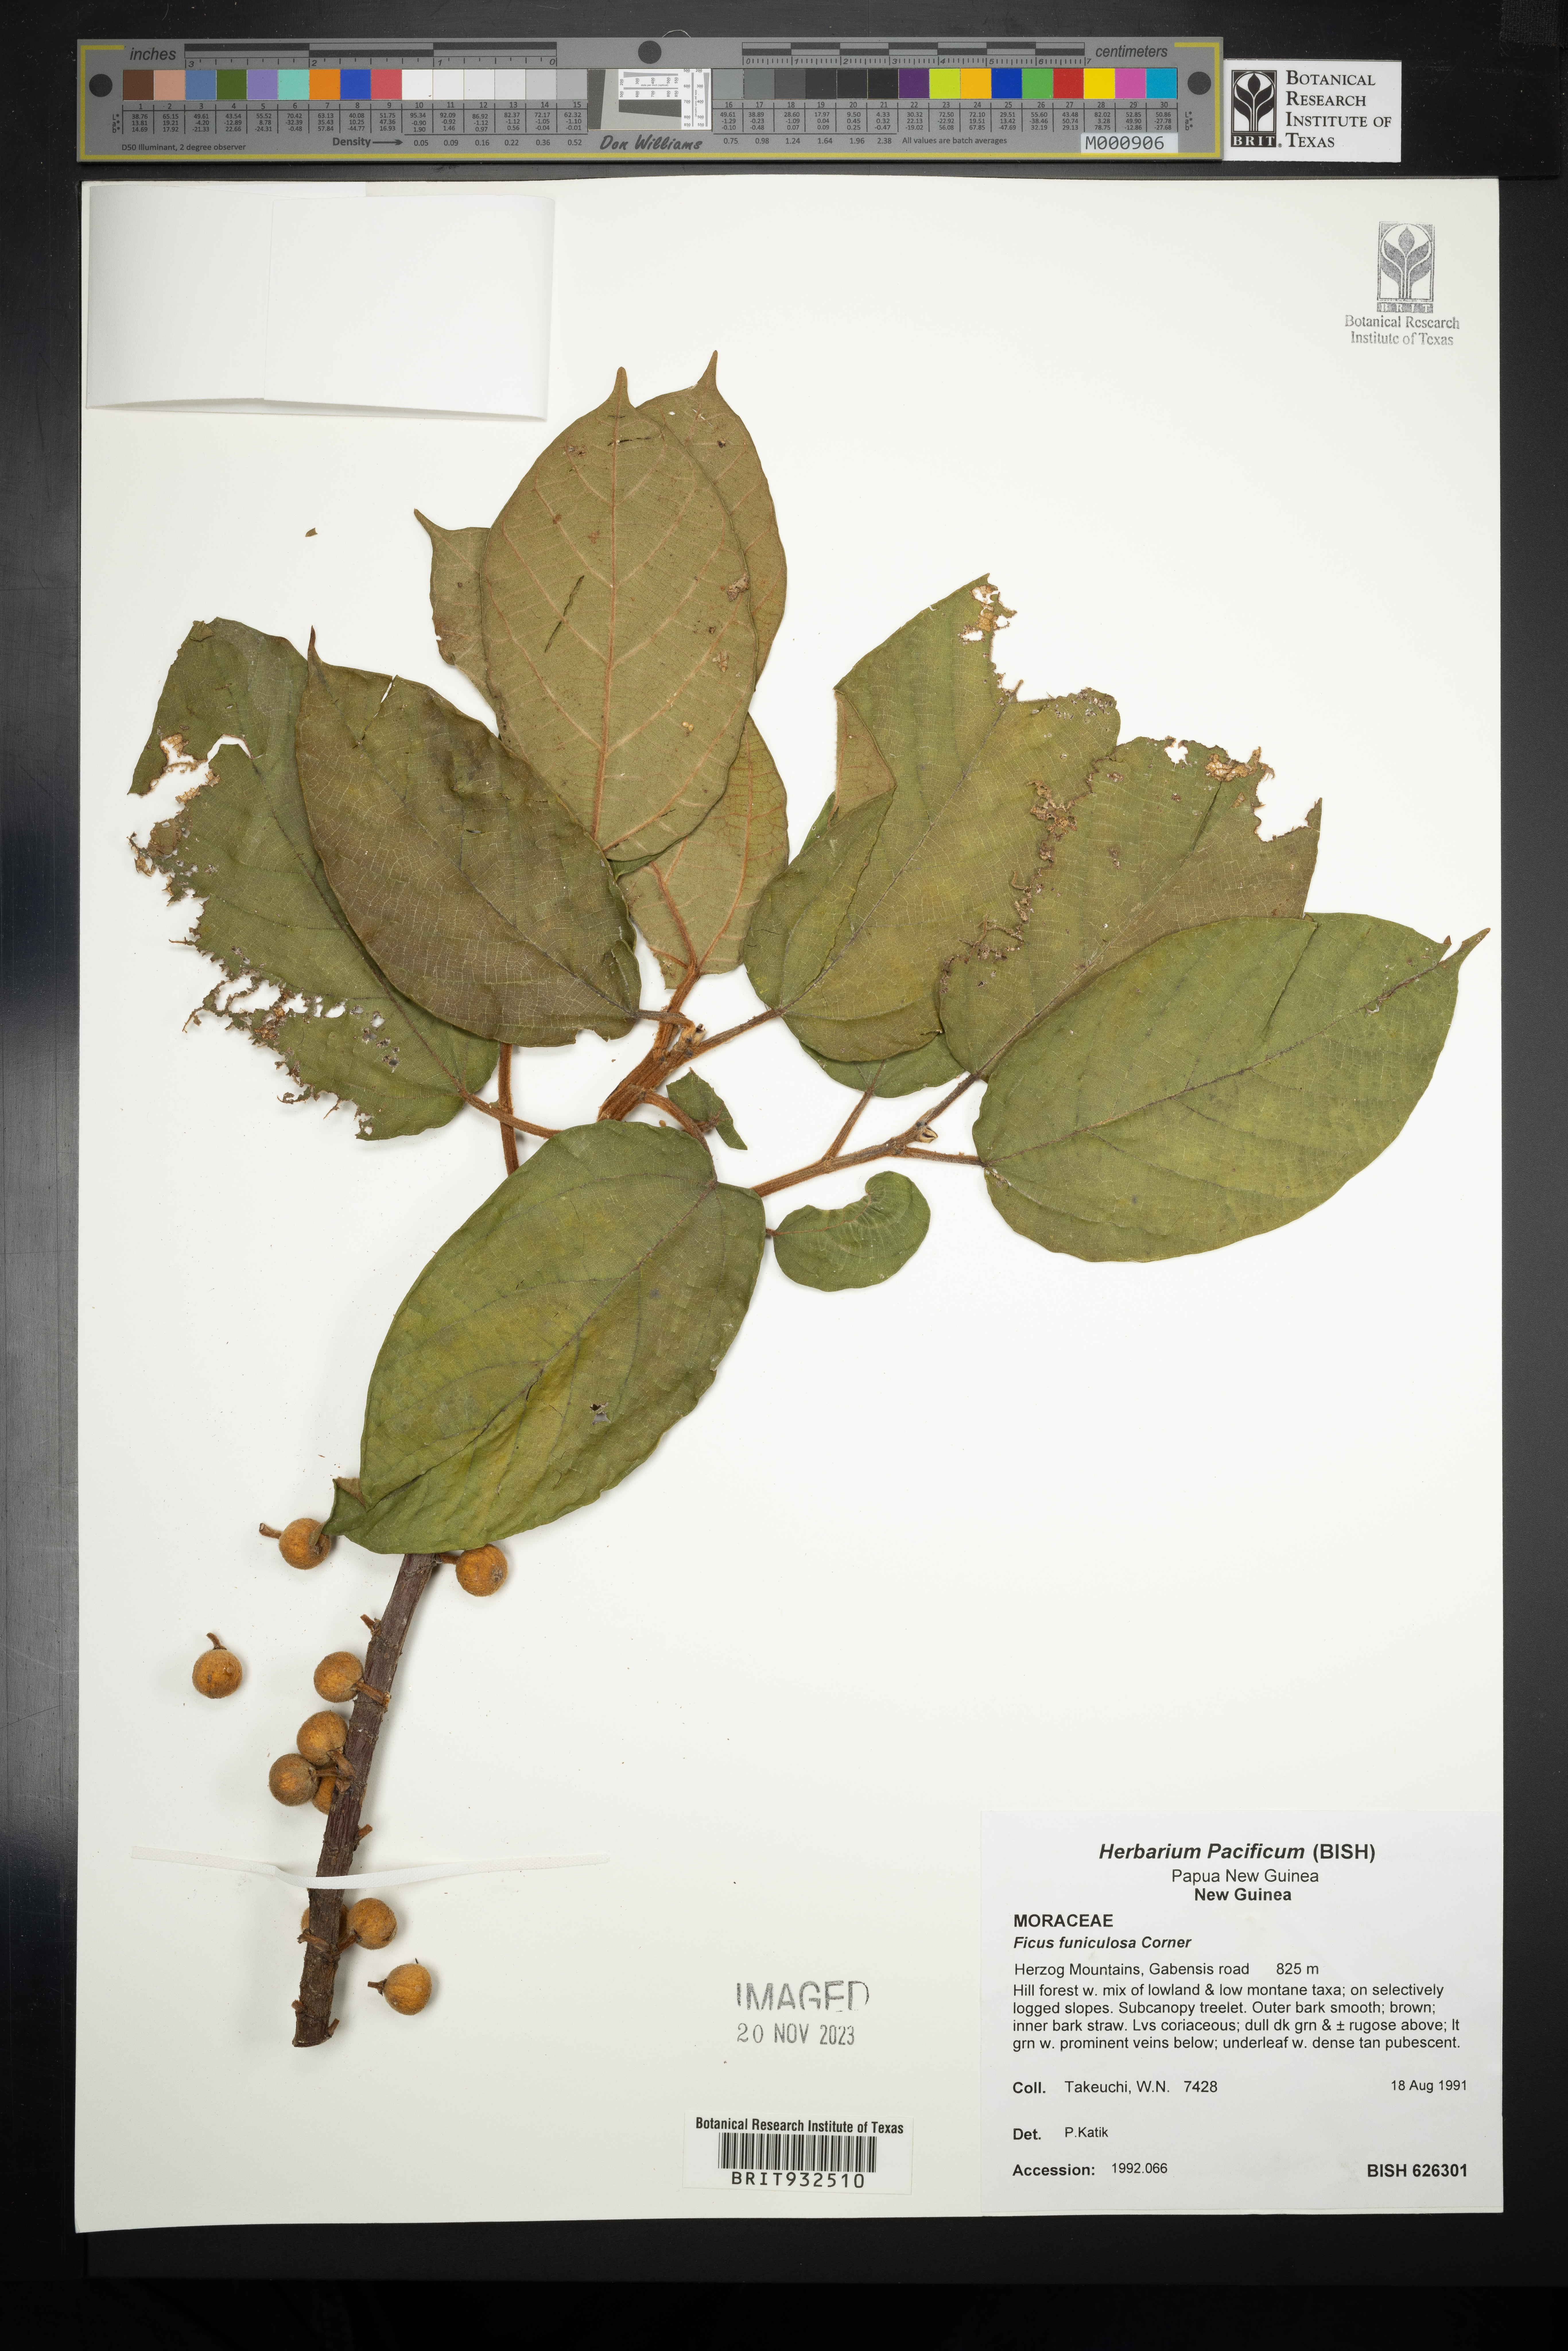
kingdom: Plantae
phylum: Tracheophyta
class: Magnoliopsida
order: Rosales
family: Moraceae
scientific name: Moraceae
